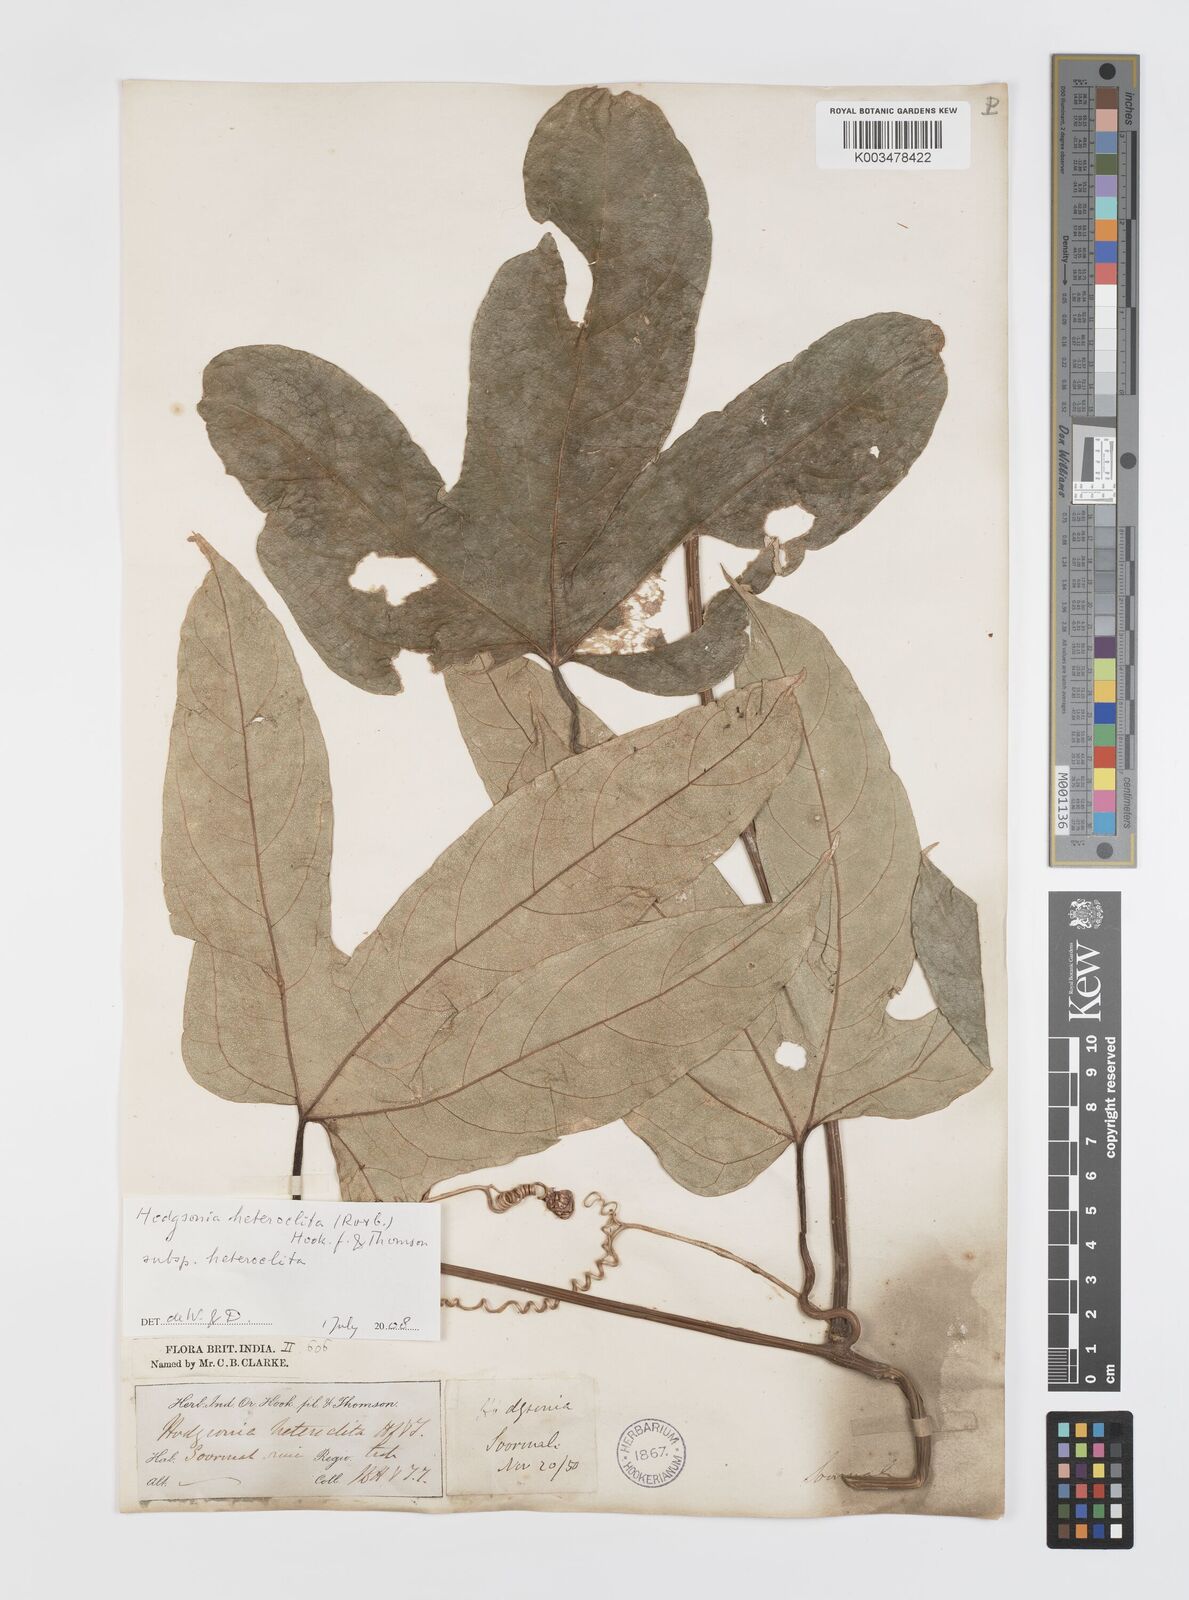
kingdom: Plantae
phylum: Tracheophyta
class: Magnoliopsida
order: Cucurbitales
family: Cucurbitaceae
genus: Hodgsonia
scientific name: Hodgsonia macrocarpa
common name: Chinese lardfruit
